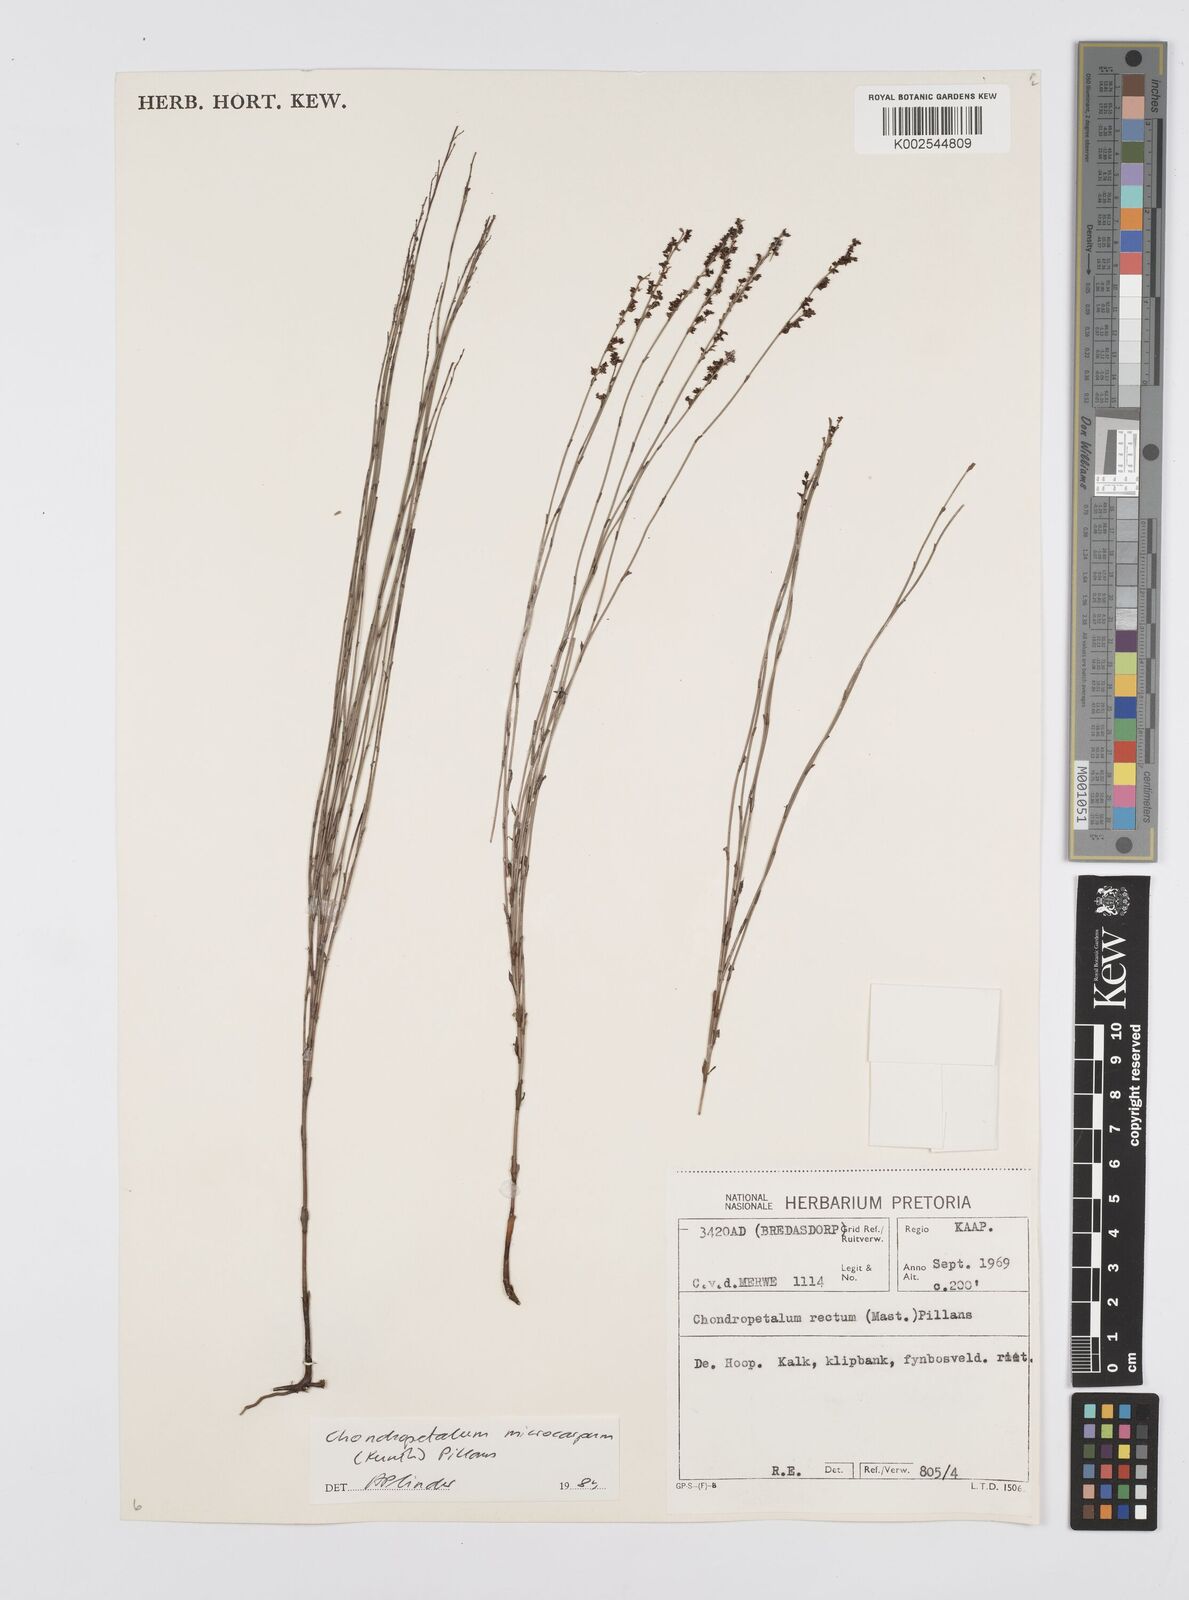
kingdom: Plantae
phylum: Tracheophyta
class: Liliopsida
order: Poales
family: Restionaceae
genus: Elegia
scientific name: Elegia microcarpa
